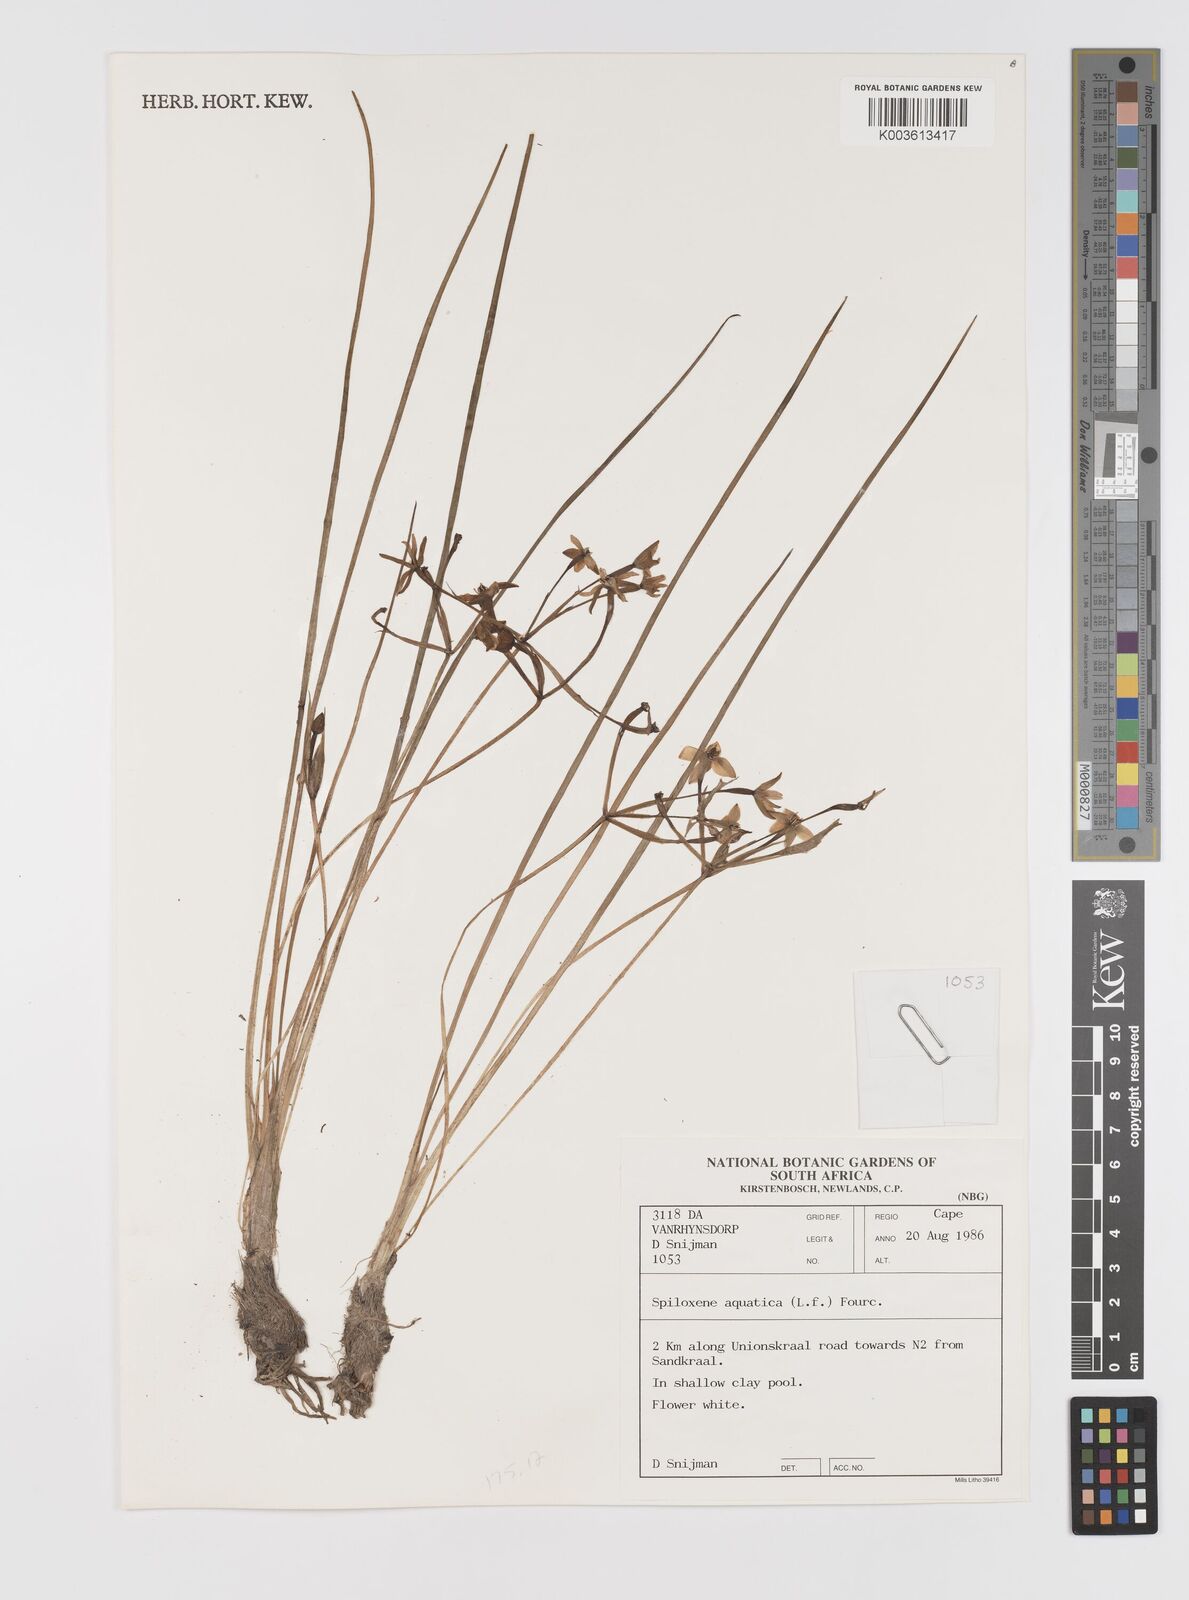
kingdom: Plantae
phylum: Tracheophyta
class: Liliopsida
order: Asparagales
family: Hypoxidaceae
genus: Pauridia
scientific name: Pauridia aquatica
